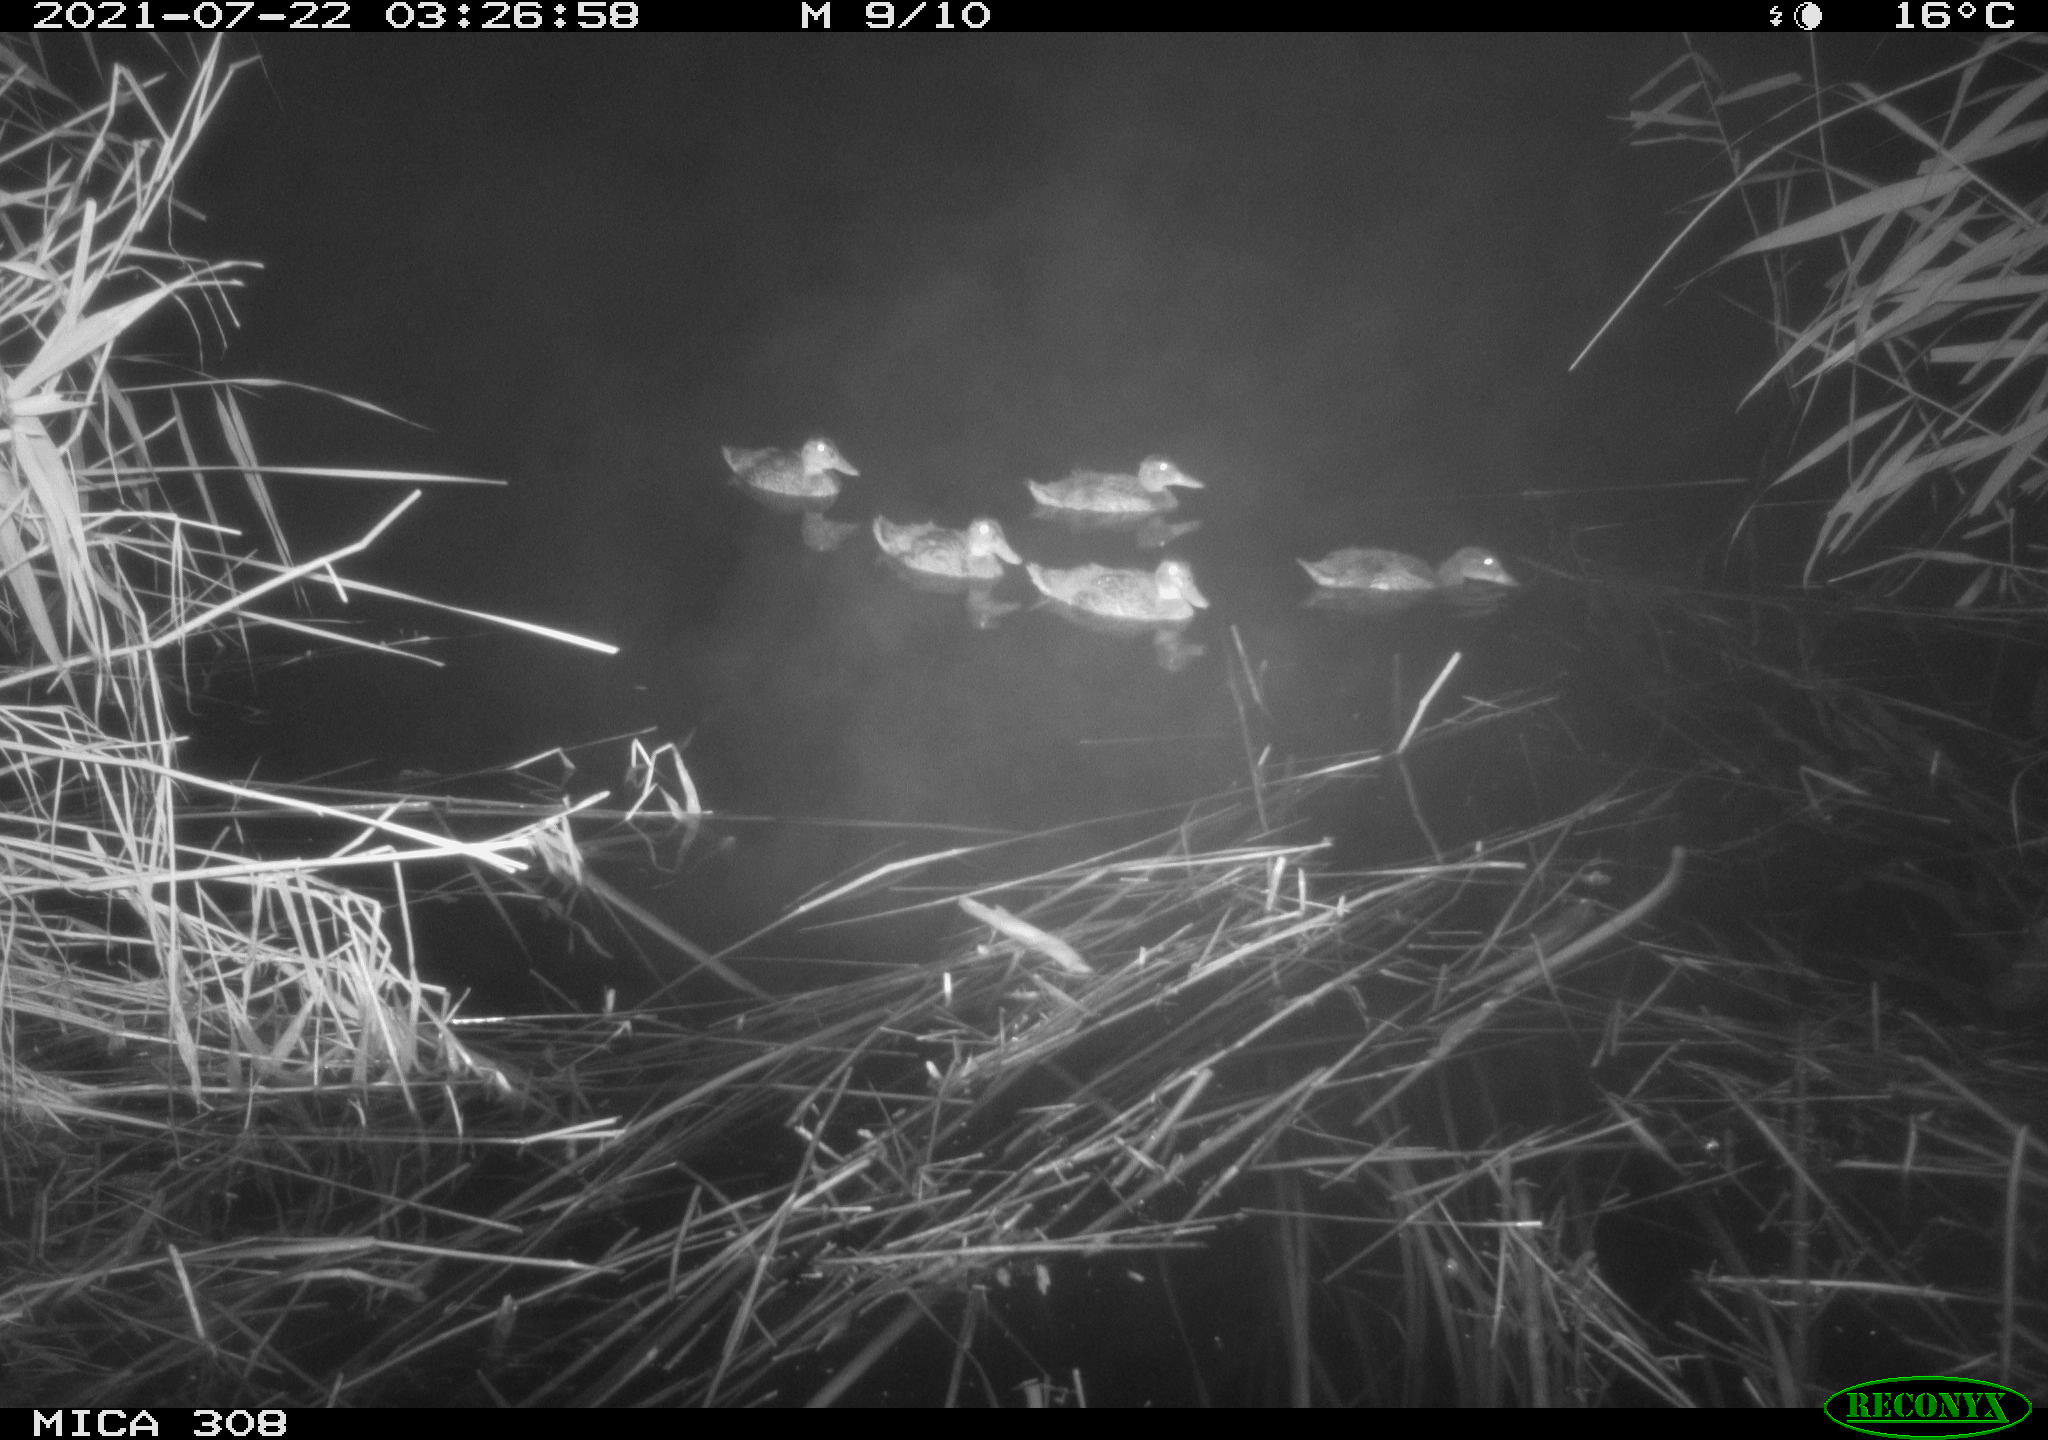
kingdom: Animalia
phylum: Chordata
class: Aves
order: Anseriformes
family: Anatidae
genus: Anas
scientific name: Anas platyrhynchos
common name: Mallard
